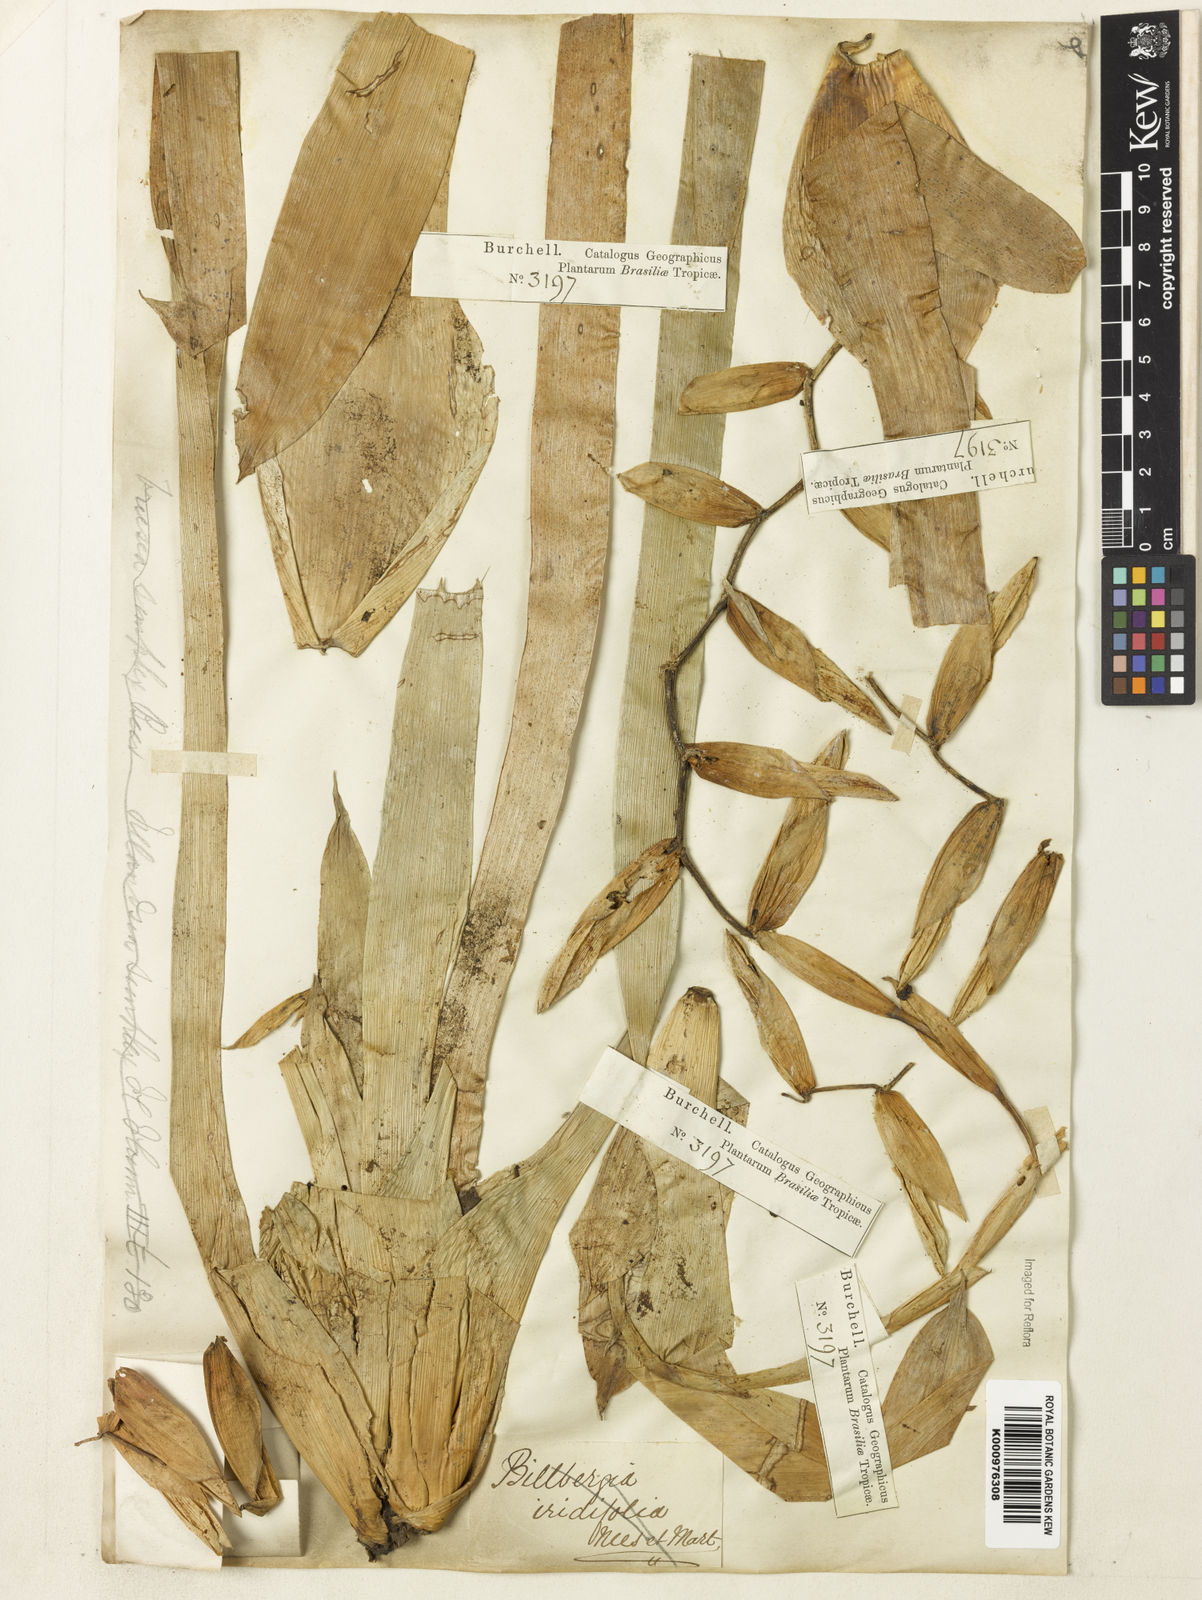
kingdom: Plantae
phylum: Tracheophyta
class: Liliopsida
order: Poales
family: Bromeliaceae
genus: Vriesea
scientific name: Vriesea simplex
